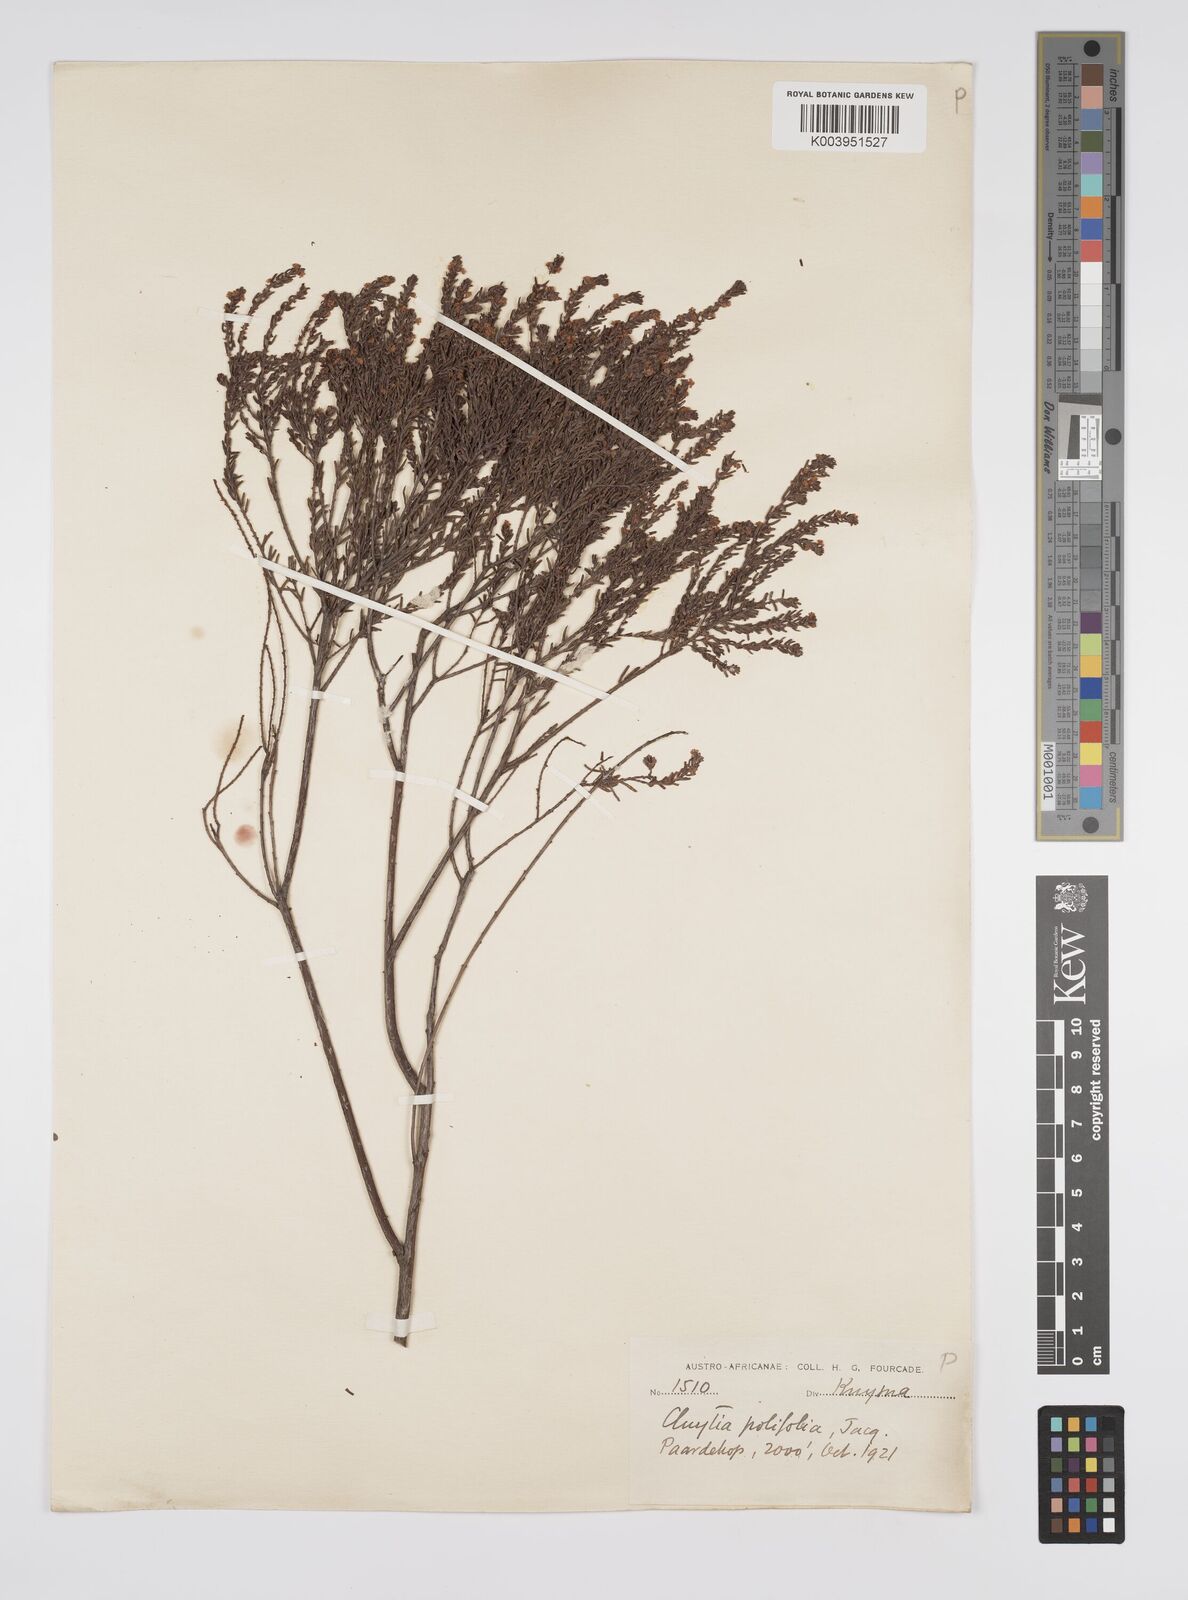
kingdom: Plantae
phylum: Tracheophyta
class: Magnoliopsida
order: Malpighiales
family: Peraceae
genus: Clutia
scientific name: Clutia
